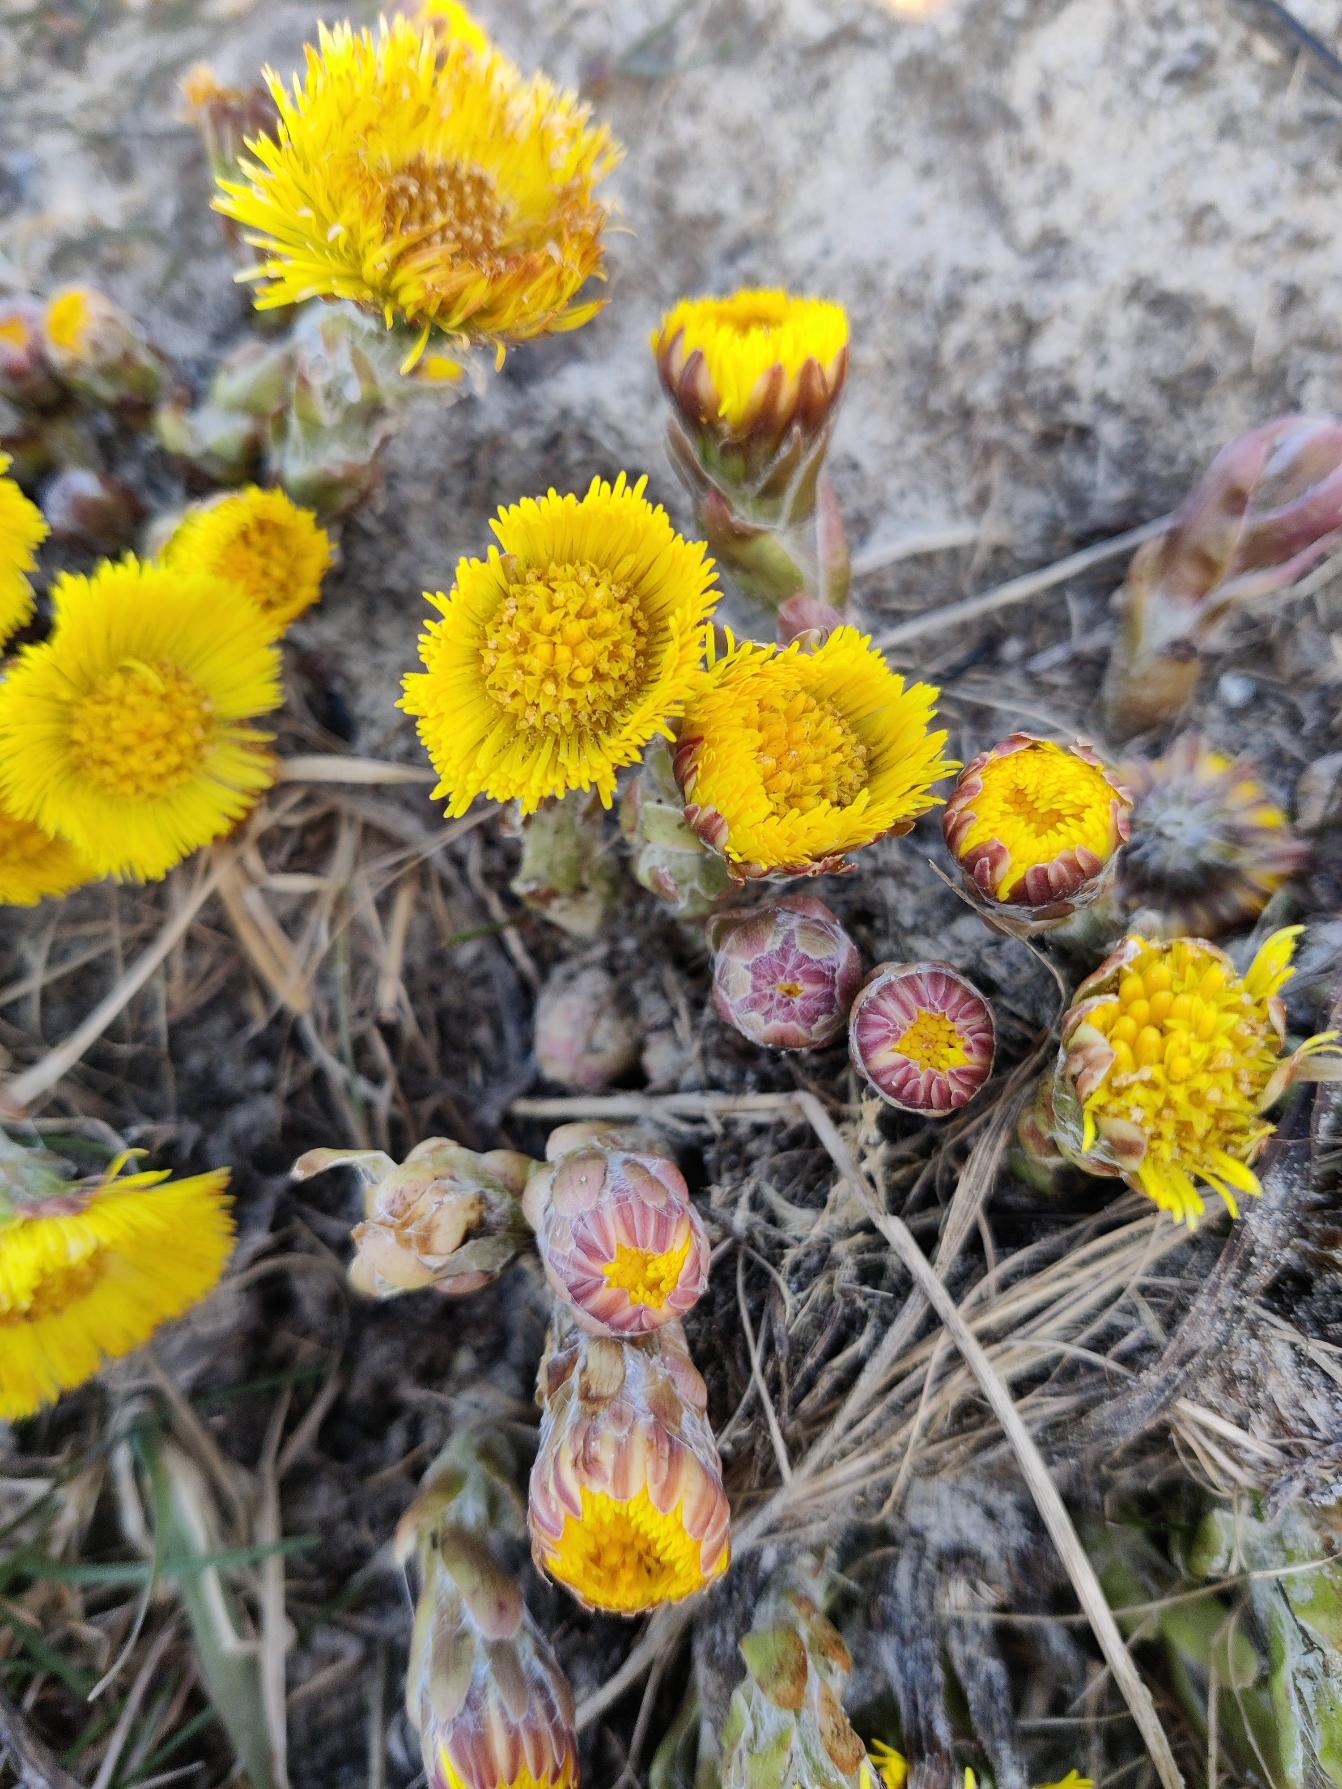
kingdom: Plantae
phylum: Tracheophyta
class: Magnoliopsida
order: Asterales
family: Asteraceae
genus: Tussilago
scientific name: Tussilago farfara
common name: Følfod
